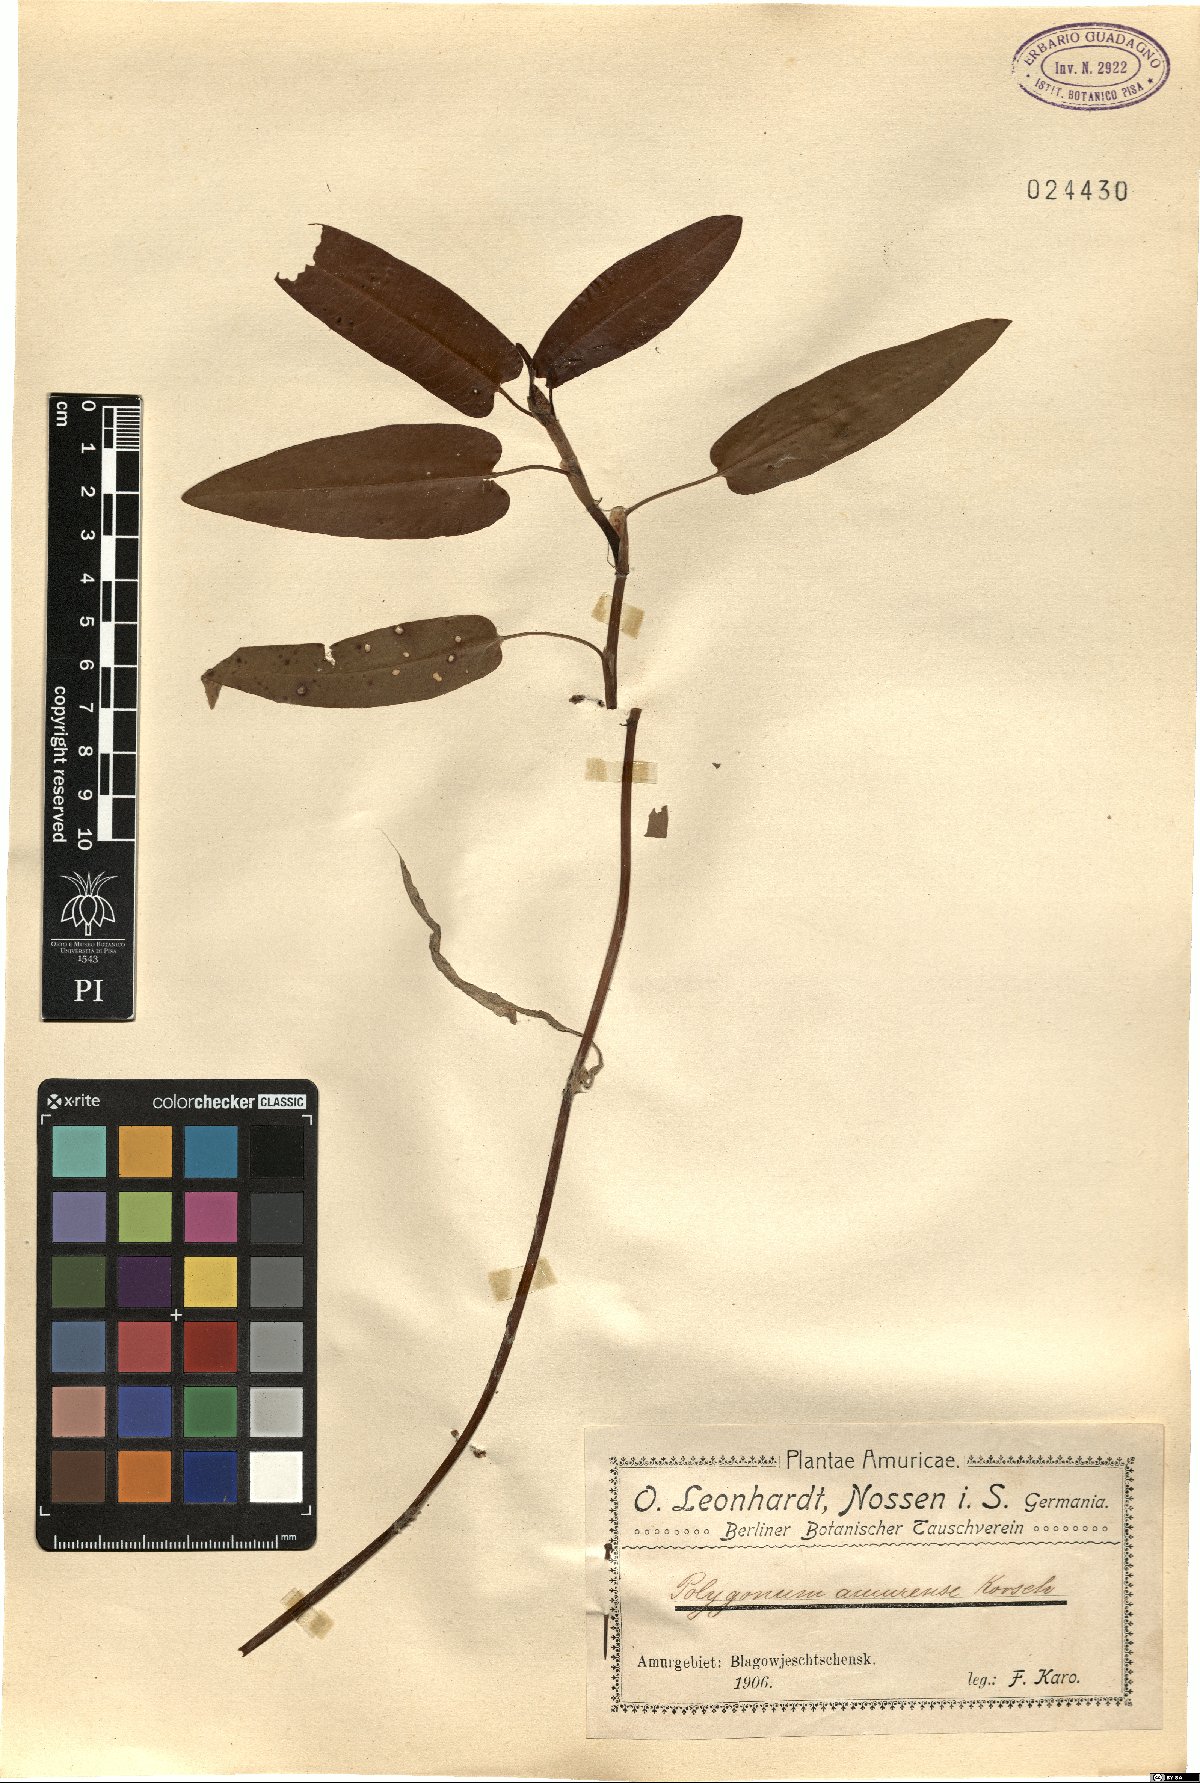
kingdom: Plantae
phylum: Tracheophyta
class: Magnoliopsida
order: Caryophyllales
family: Polygonaceae
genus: Persicaria
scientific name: Persicaria amphibia
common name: Amphibious bistort
